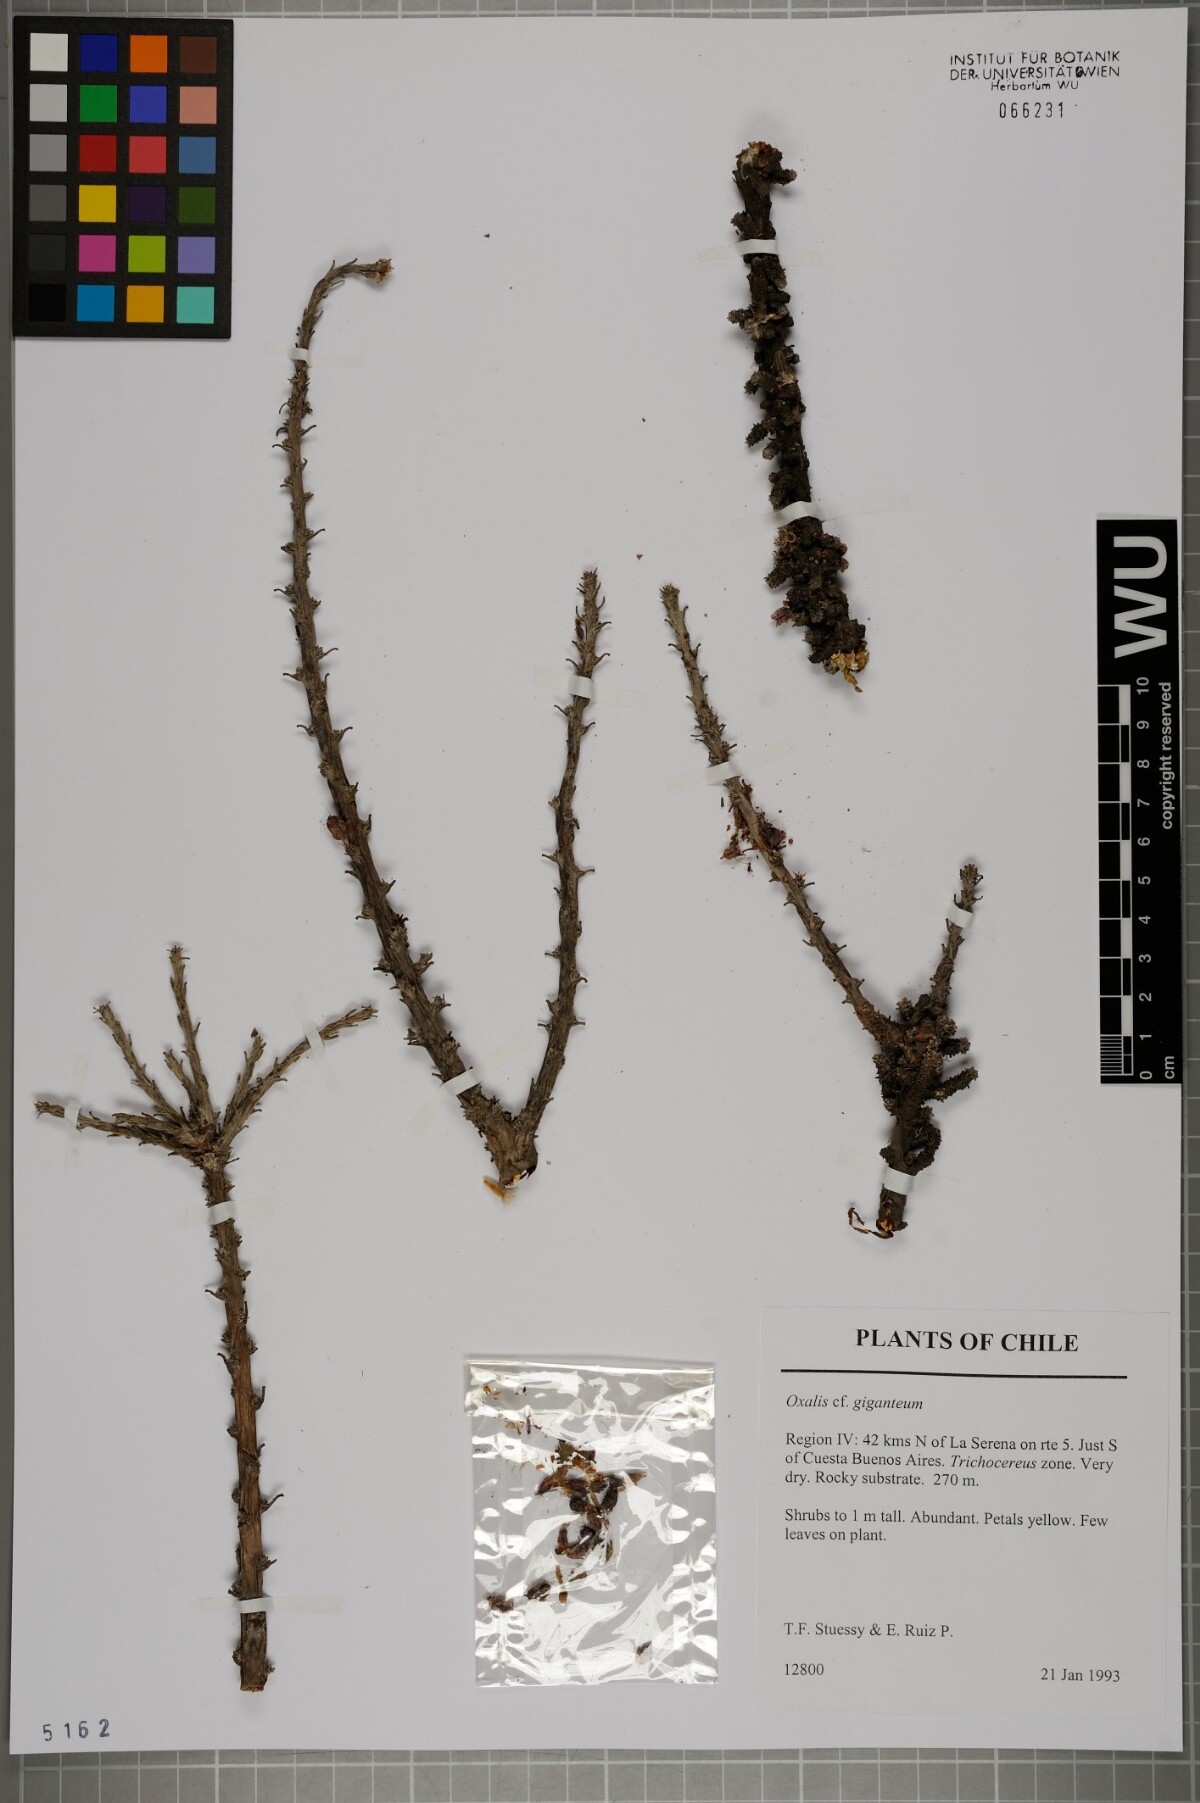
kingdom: Plantae
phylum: Tracheophyta
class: Magnoliopsida
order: Oxalidales
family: Oxalidaceae
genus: Oxalis
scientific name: Oxalis gigantea
